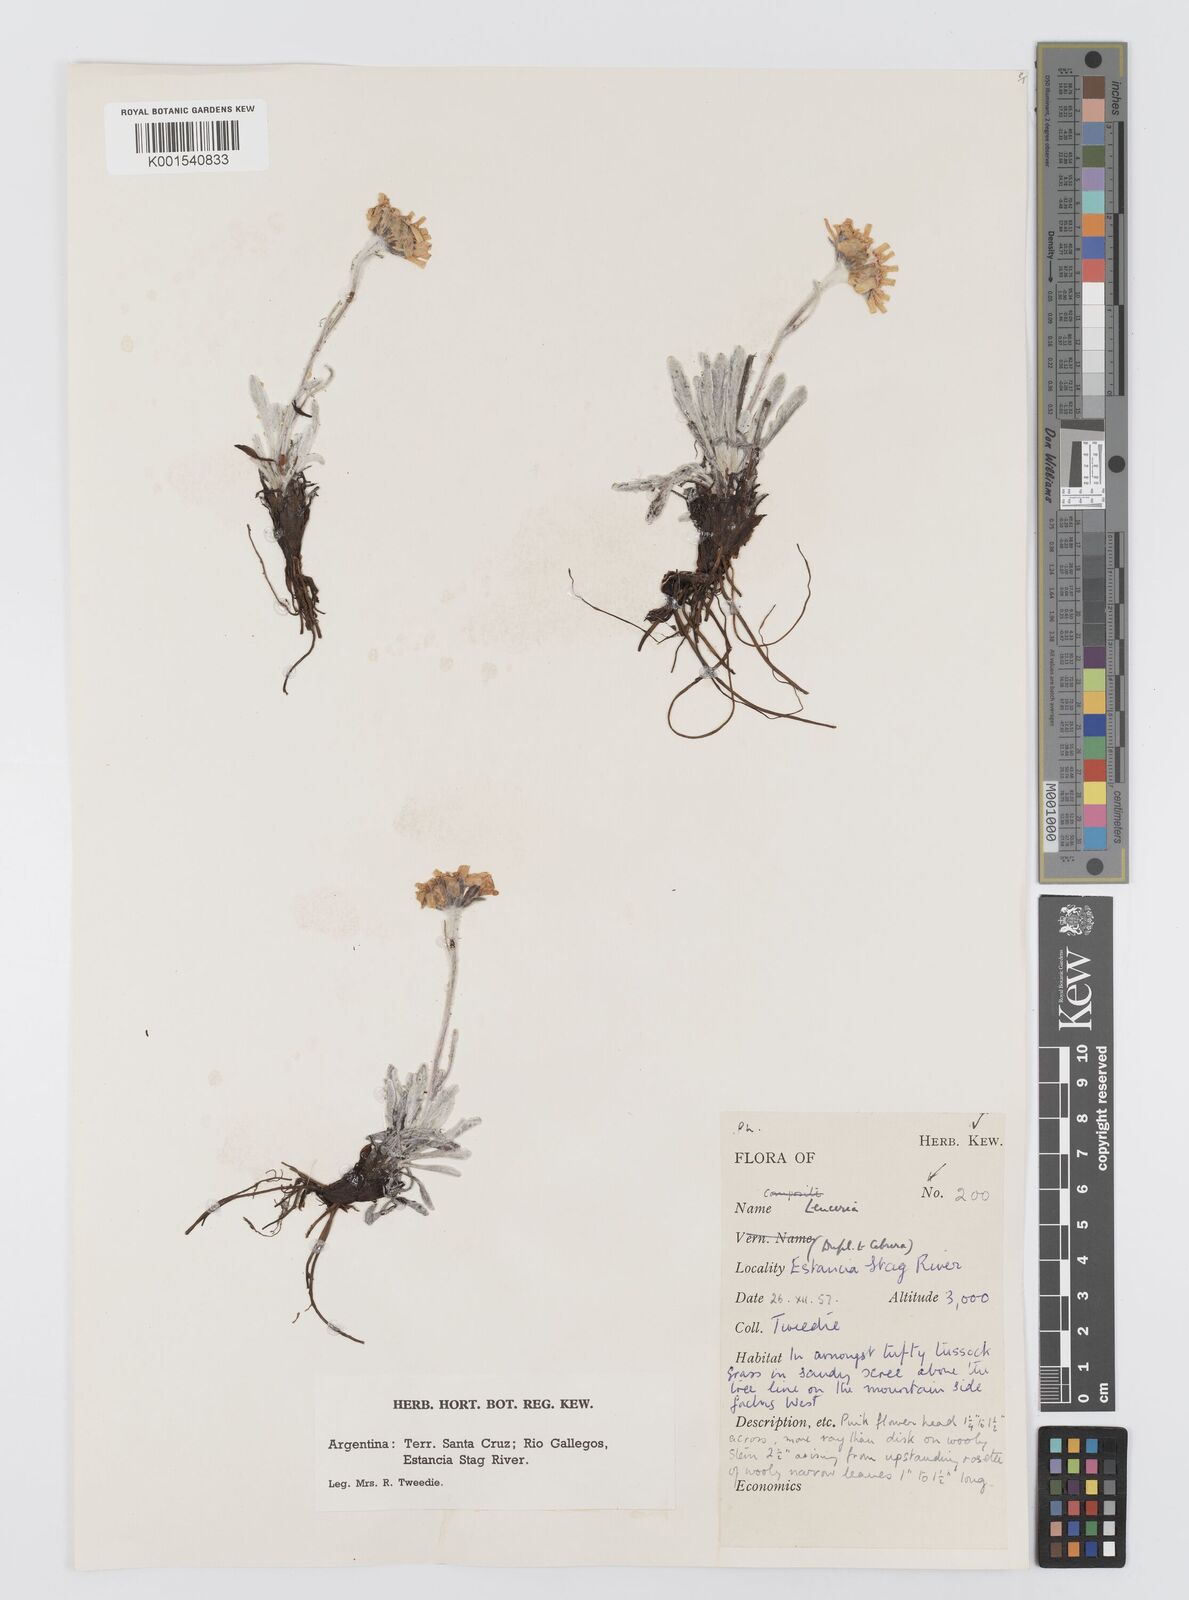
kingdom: Plantae
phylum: Tracheophyta
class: Magnoliopsida
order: Asterales
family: Asteraceae
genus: Leucheria
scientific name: Leucheria hahnii
